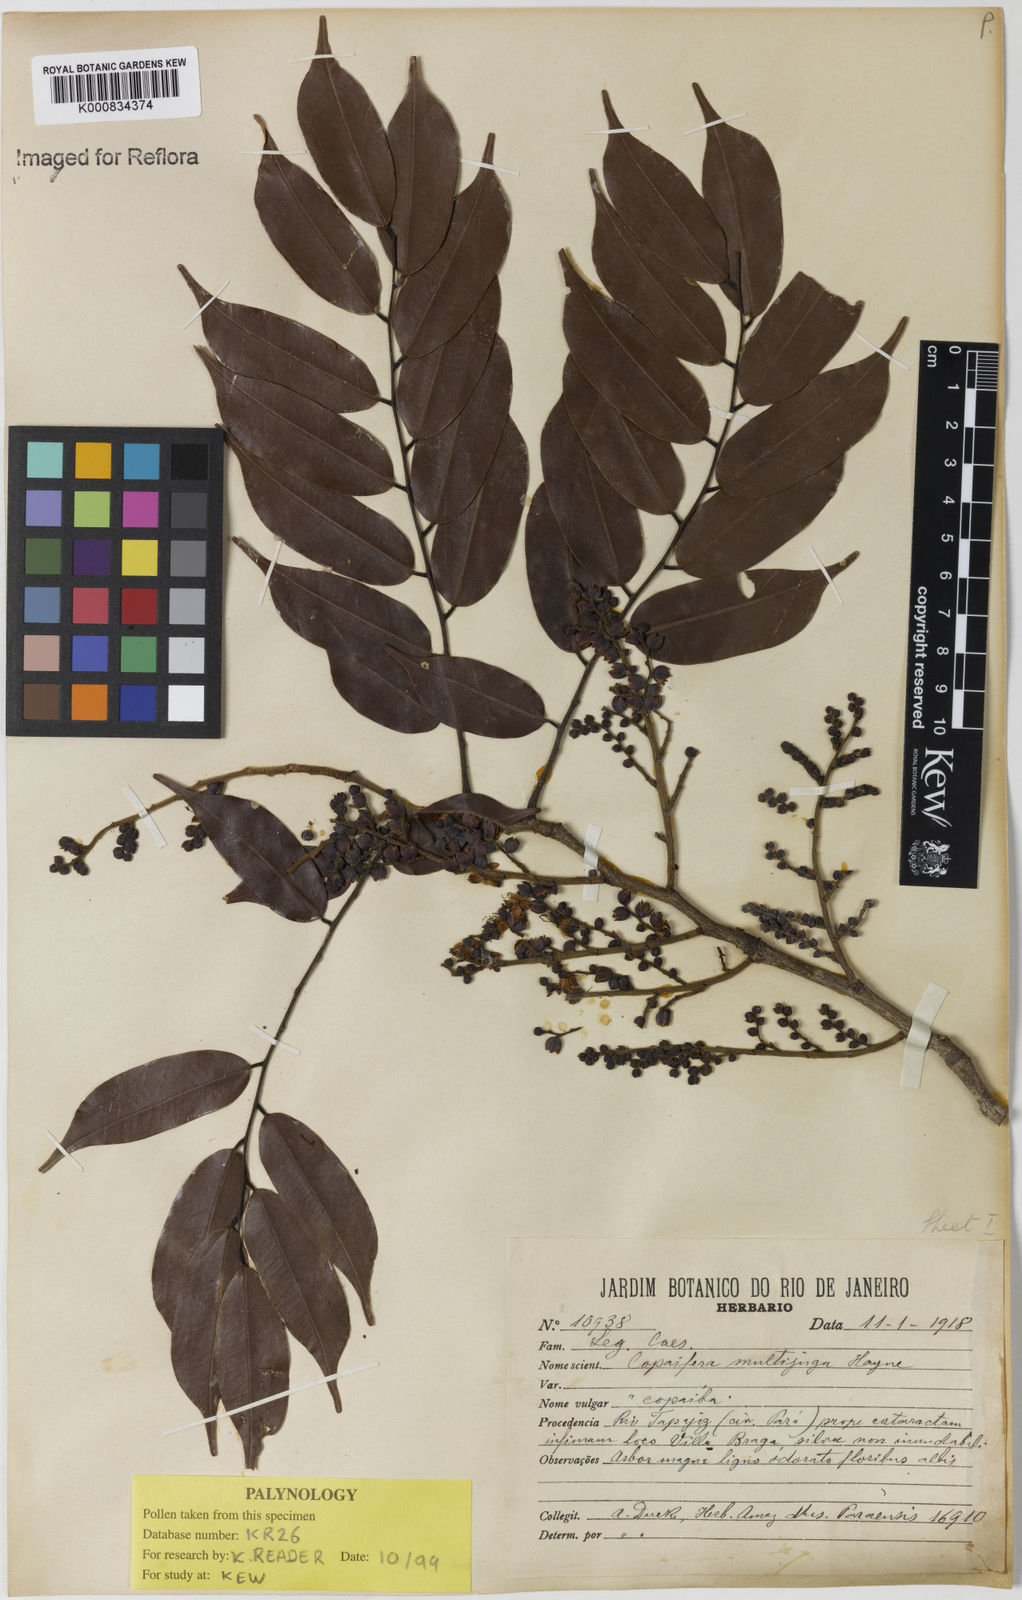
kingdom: Plantae
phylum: Tracheophyta
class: Magnoliopsida
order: Fabales
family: Fabaceae
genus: Copaifera
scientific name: Copaifera multijuga
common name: Brazilian copaiba
